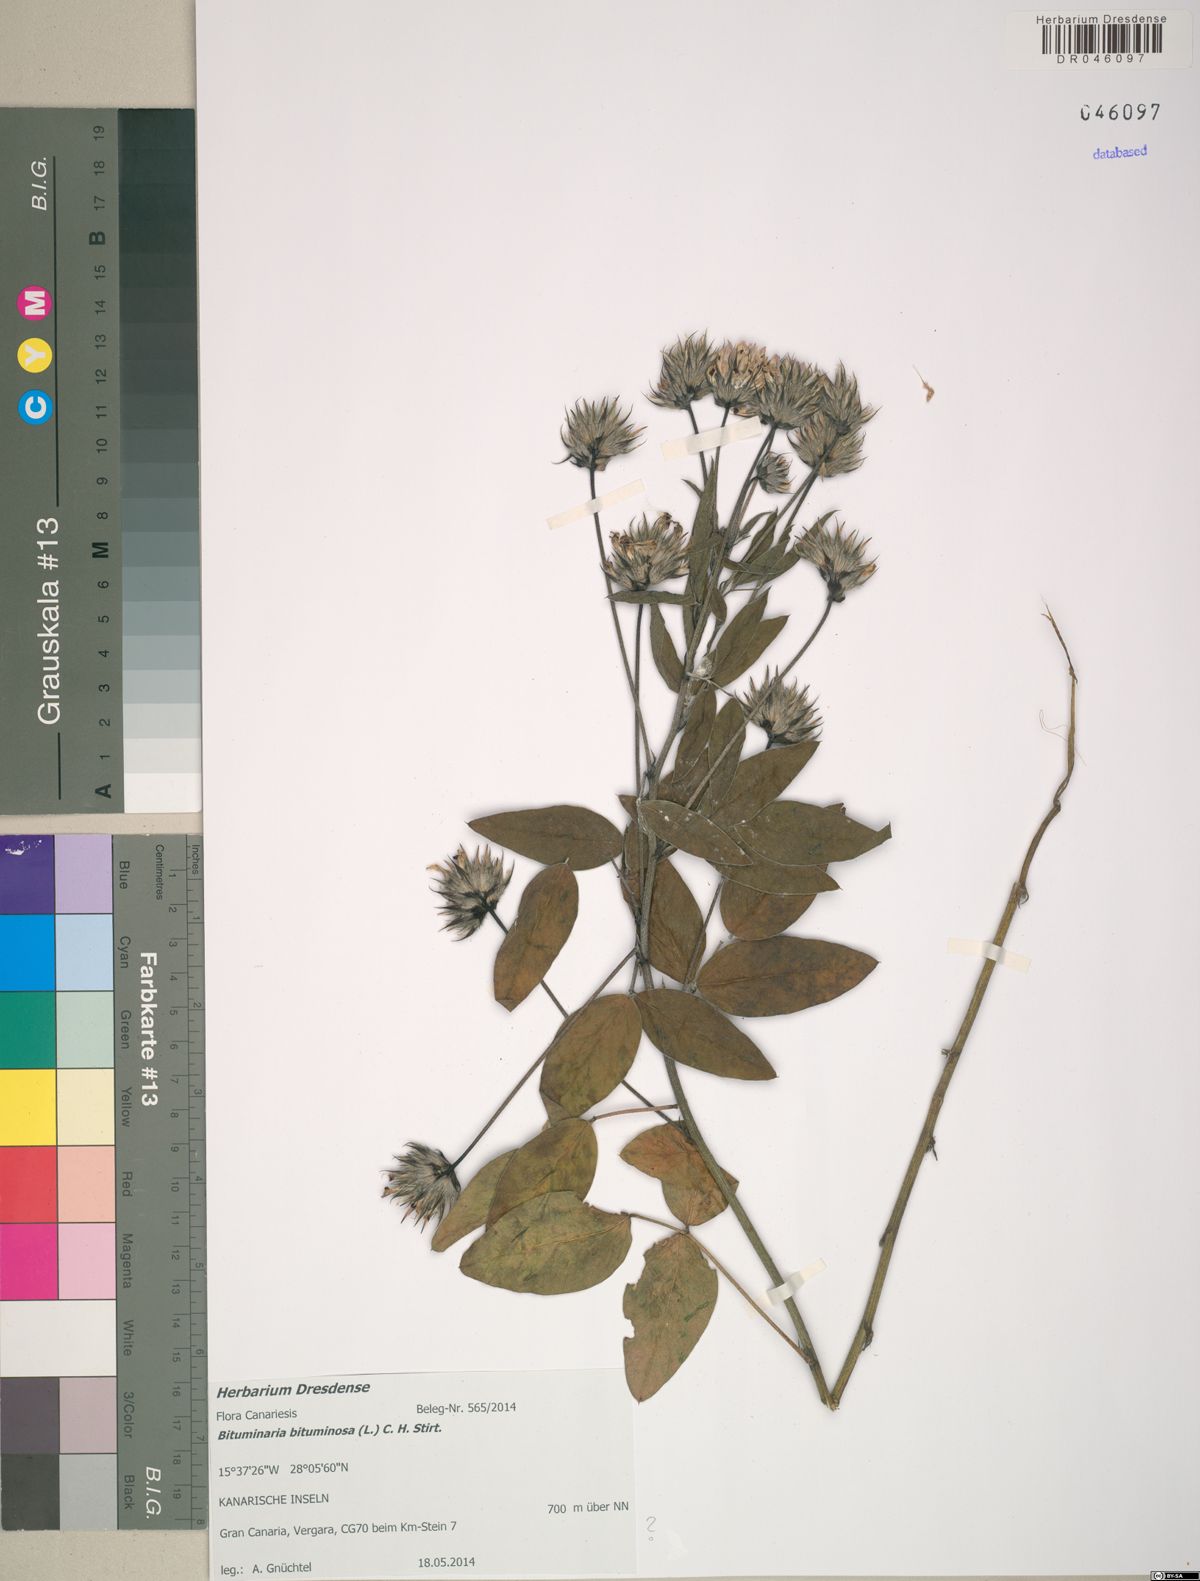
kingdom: Plantae
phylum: Tracheophyta
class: Magnoliopsida
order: Fabales
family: Fabaceae
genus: Bituminaria
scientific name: Bituminaria bituminosa
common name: Arabian pea
